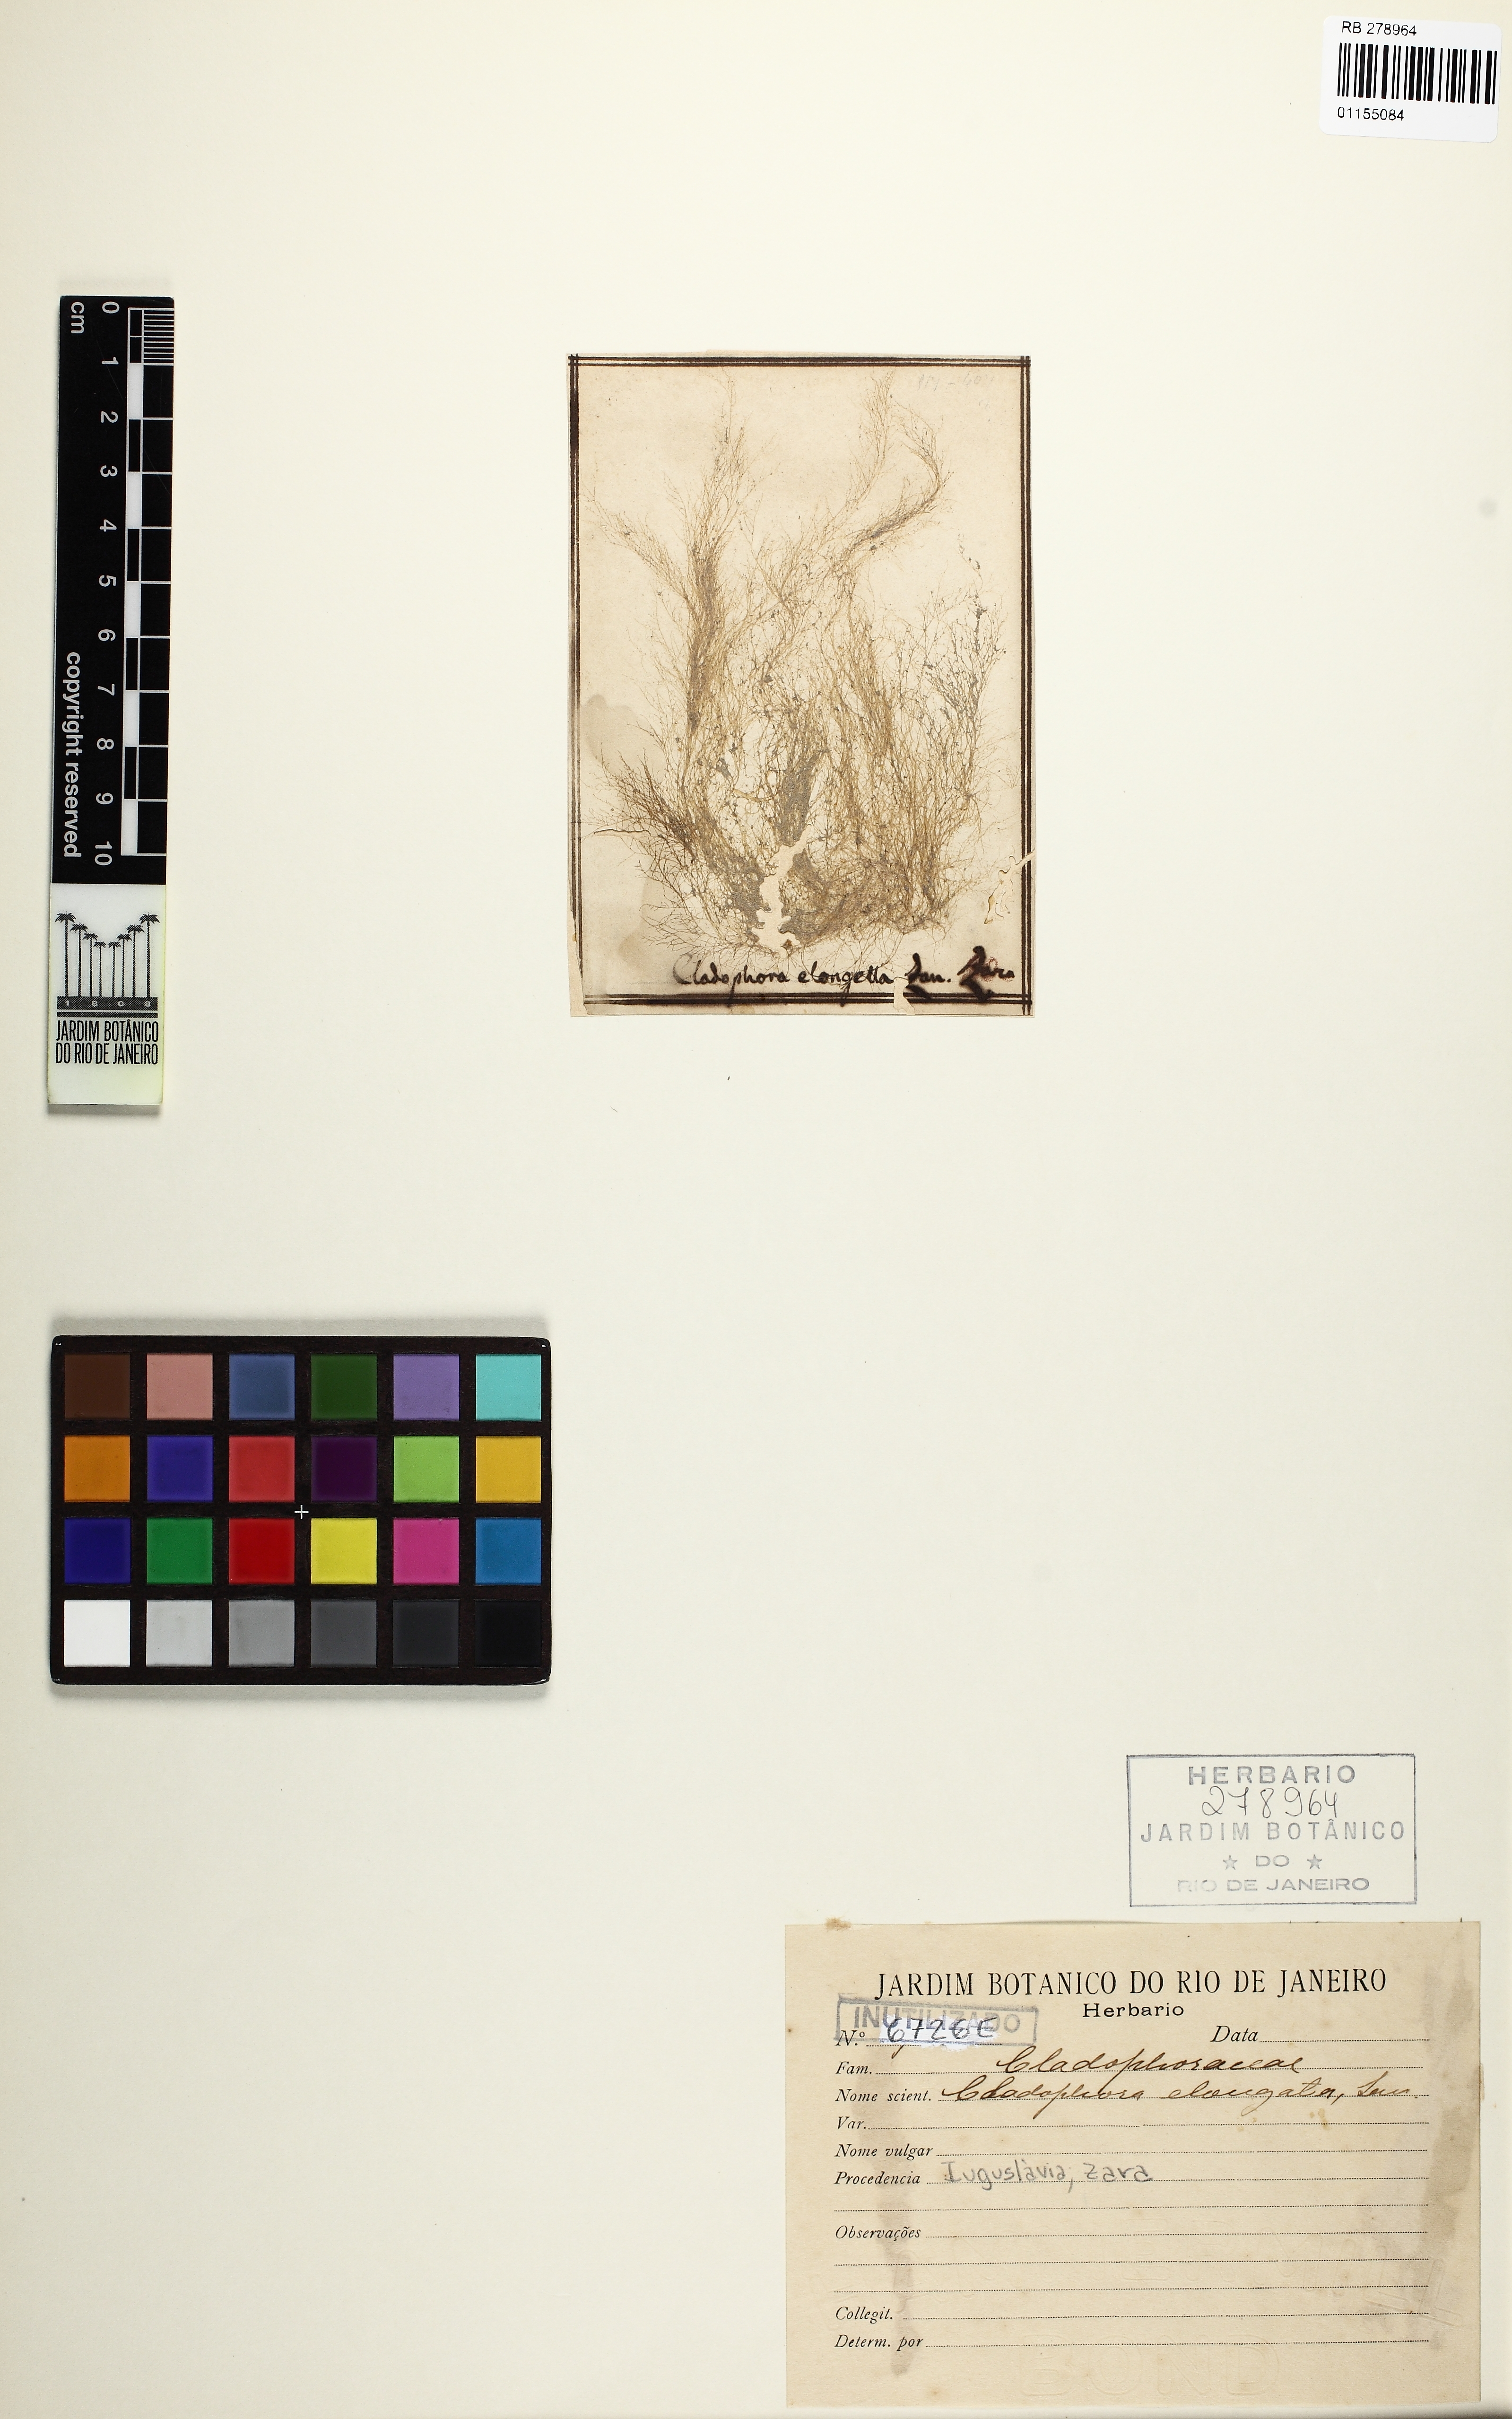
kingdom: Plantae
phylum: Chlorophyta
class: Ulvophyceae
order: Cladophorales
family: Cladophoraceae
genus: Cladophora
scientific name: Cladophora glomerata
